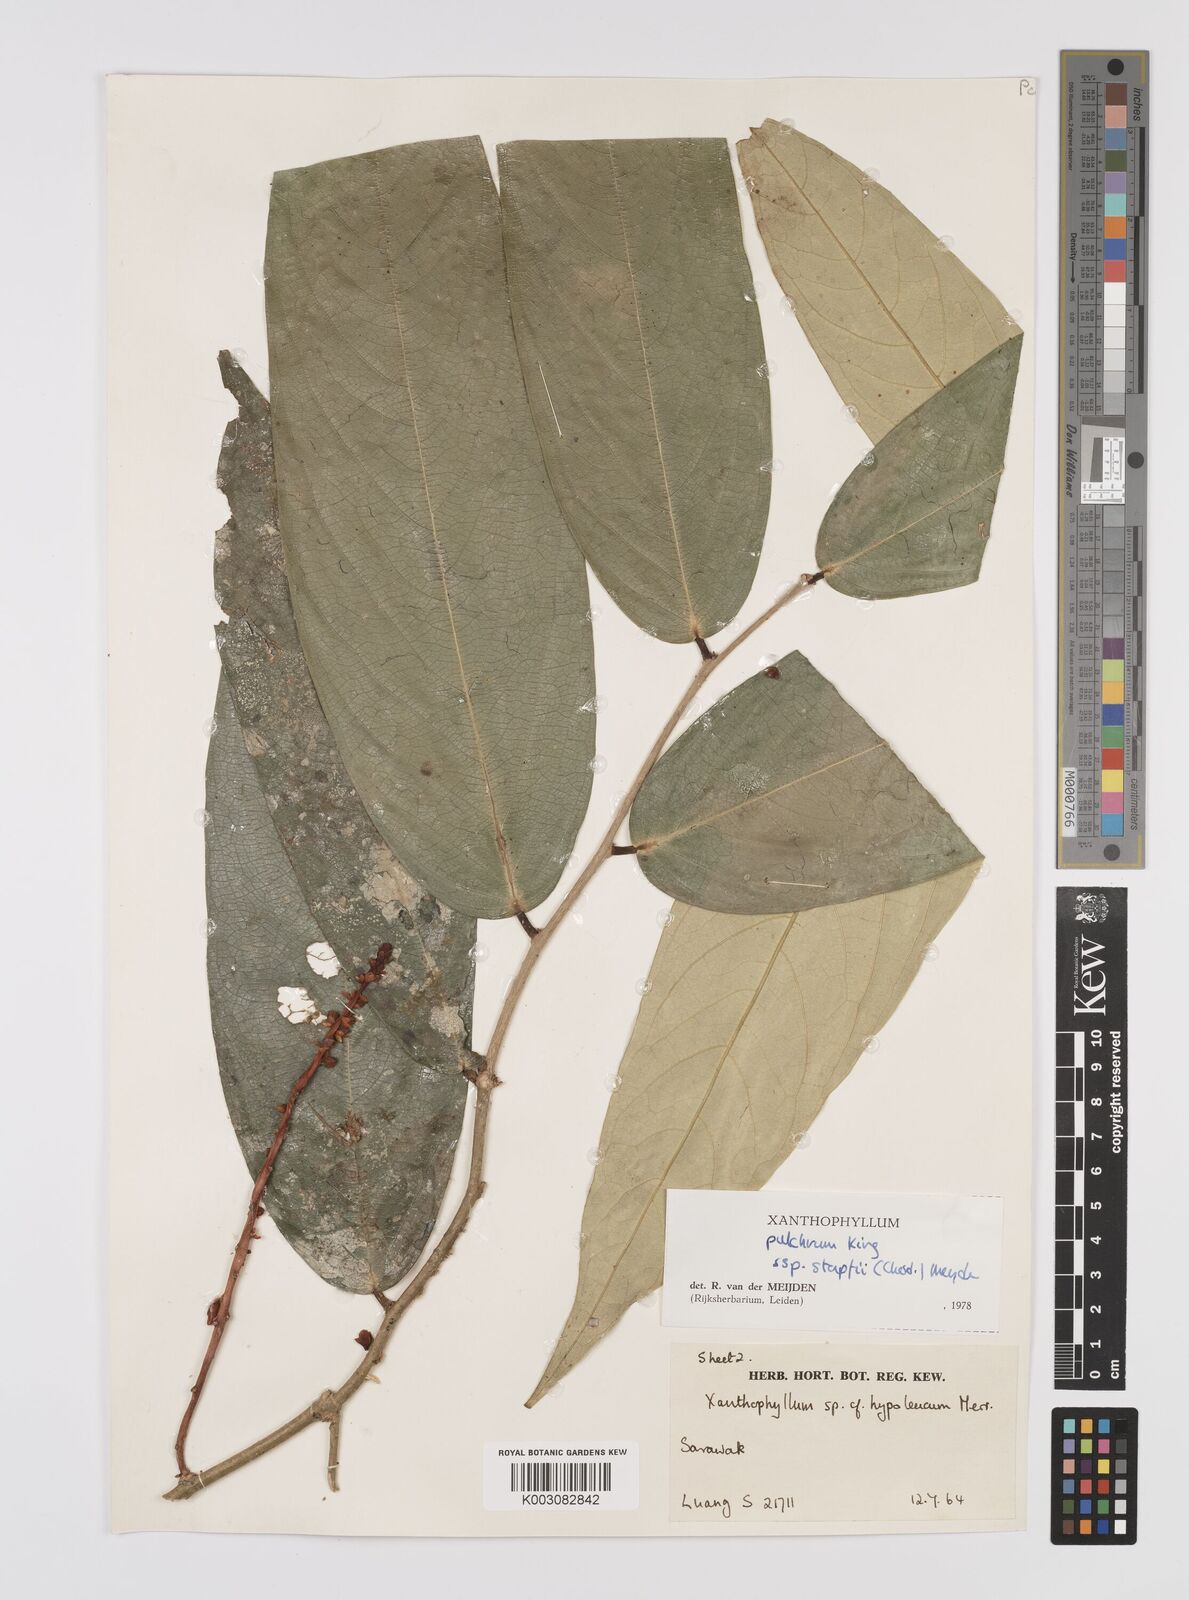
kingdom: Plantae
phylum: Tracheophyta
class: Magnoliopsida
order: Fabales
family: Polygalaceae
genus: Xanthophyllum
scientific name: Xanthophyllum pulchrum
